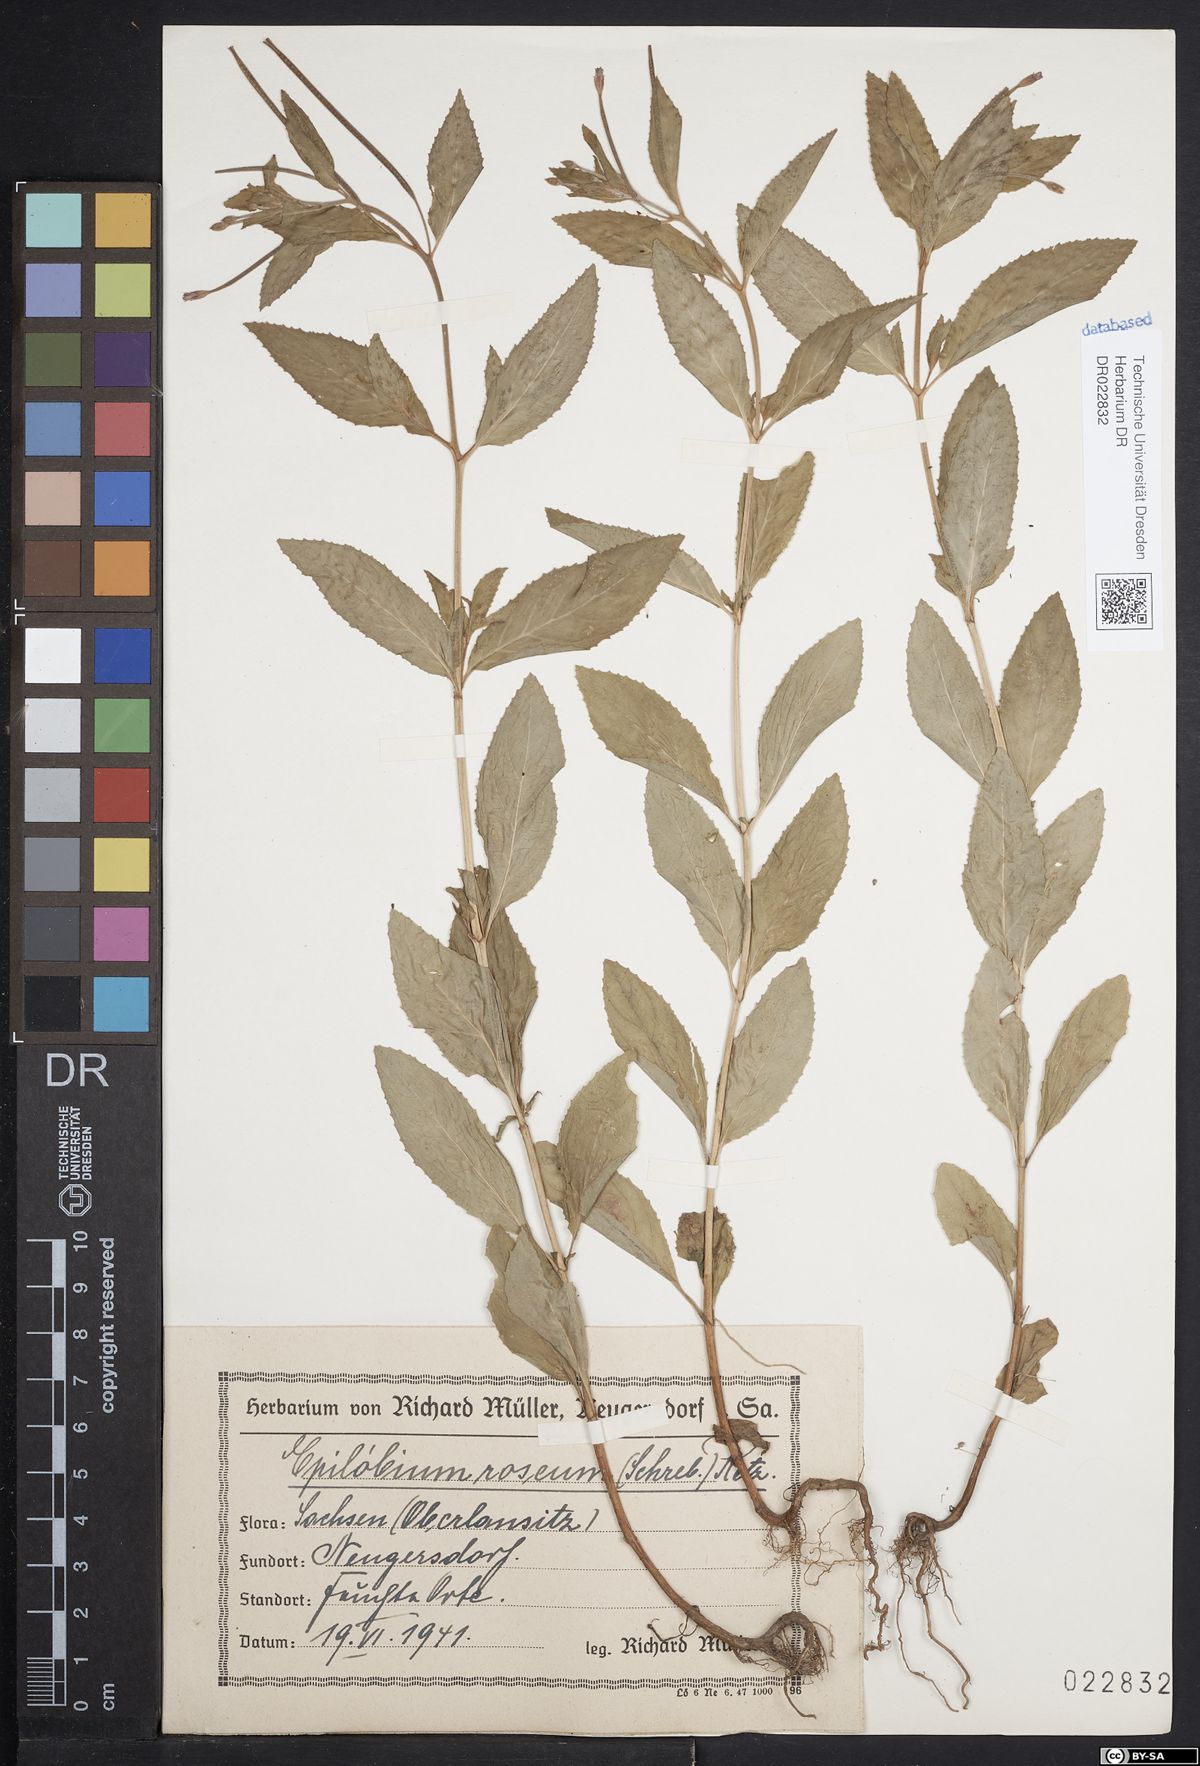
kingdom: Plantae
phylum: Tracheophyta
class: Magnoliopsida
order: Myrtales
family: Onagraceae
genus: Epilobium
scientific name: Epilobium roseum
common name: Pale willowherb
